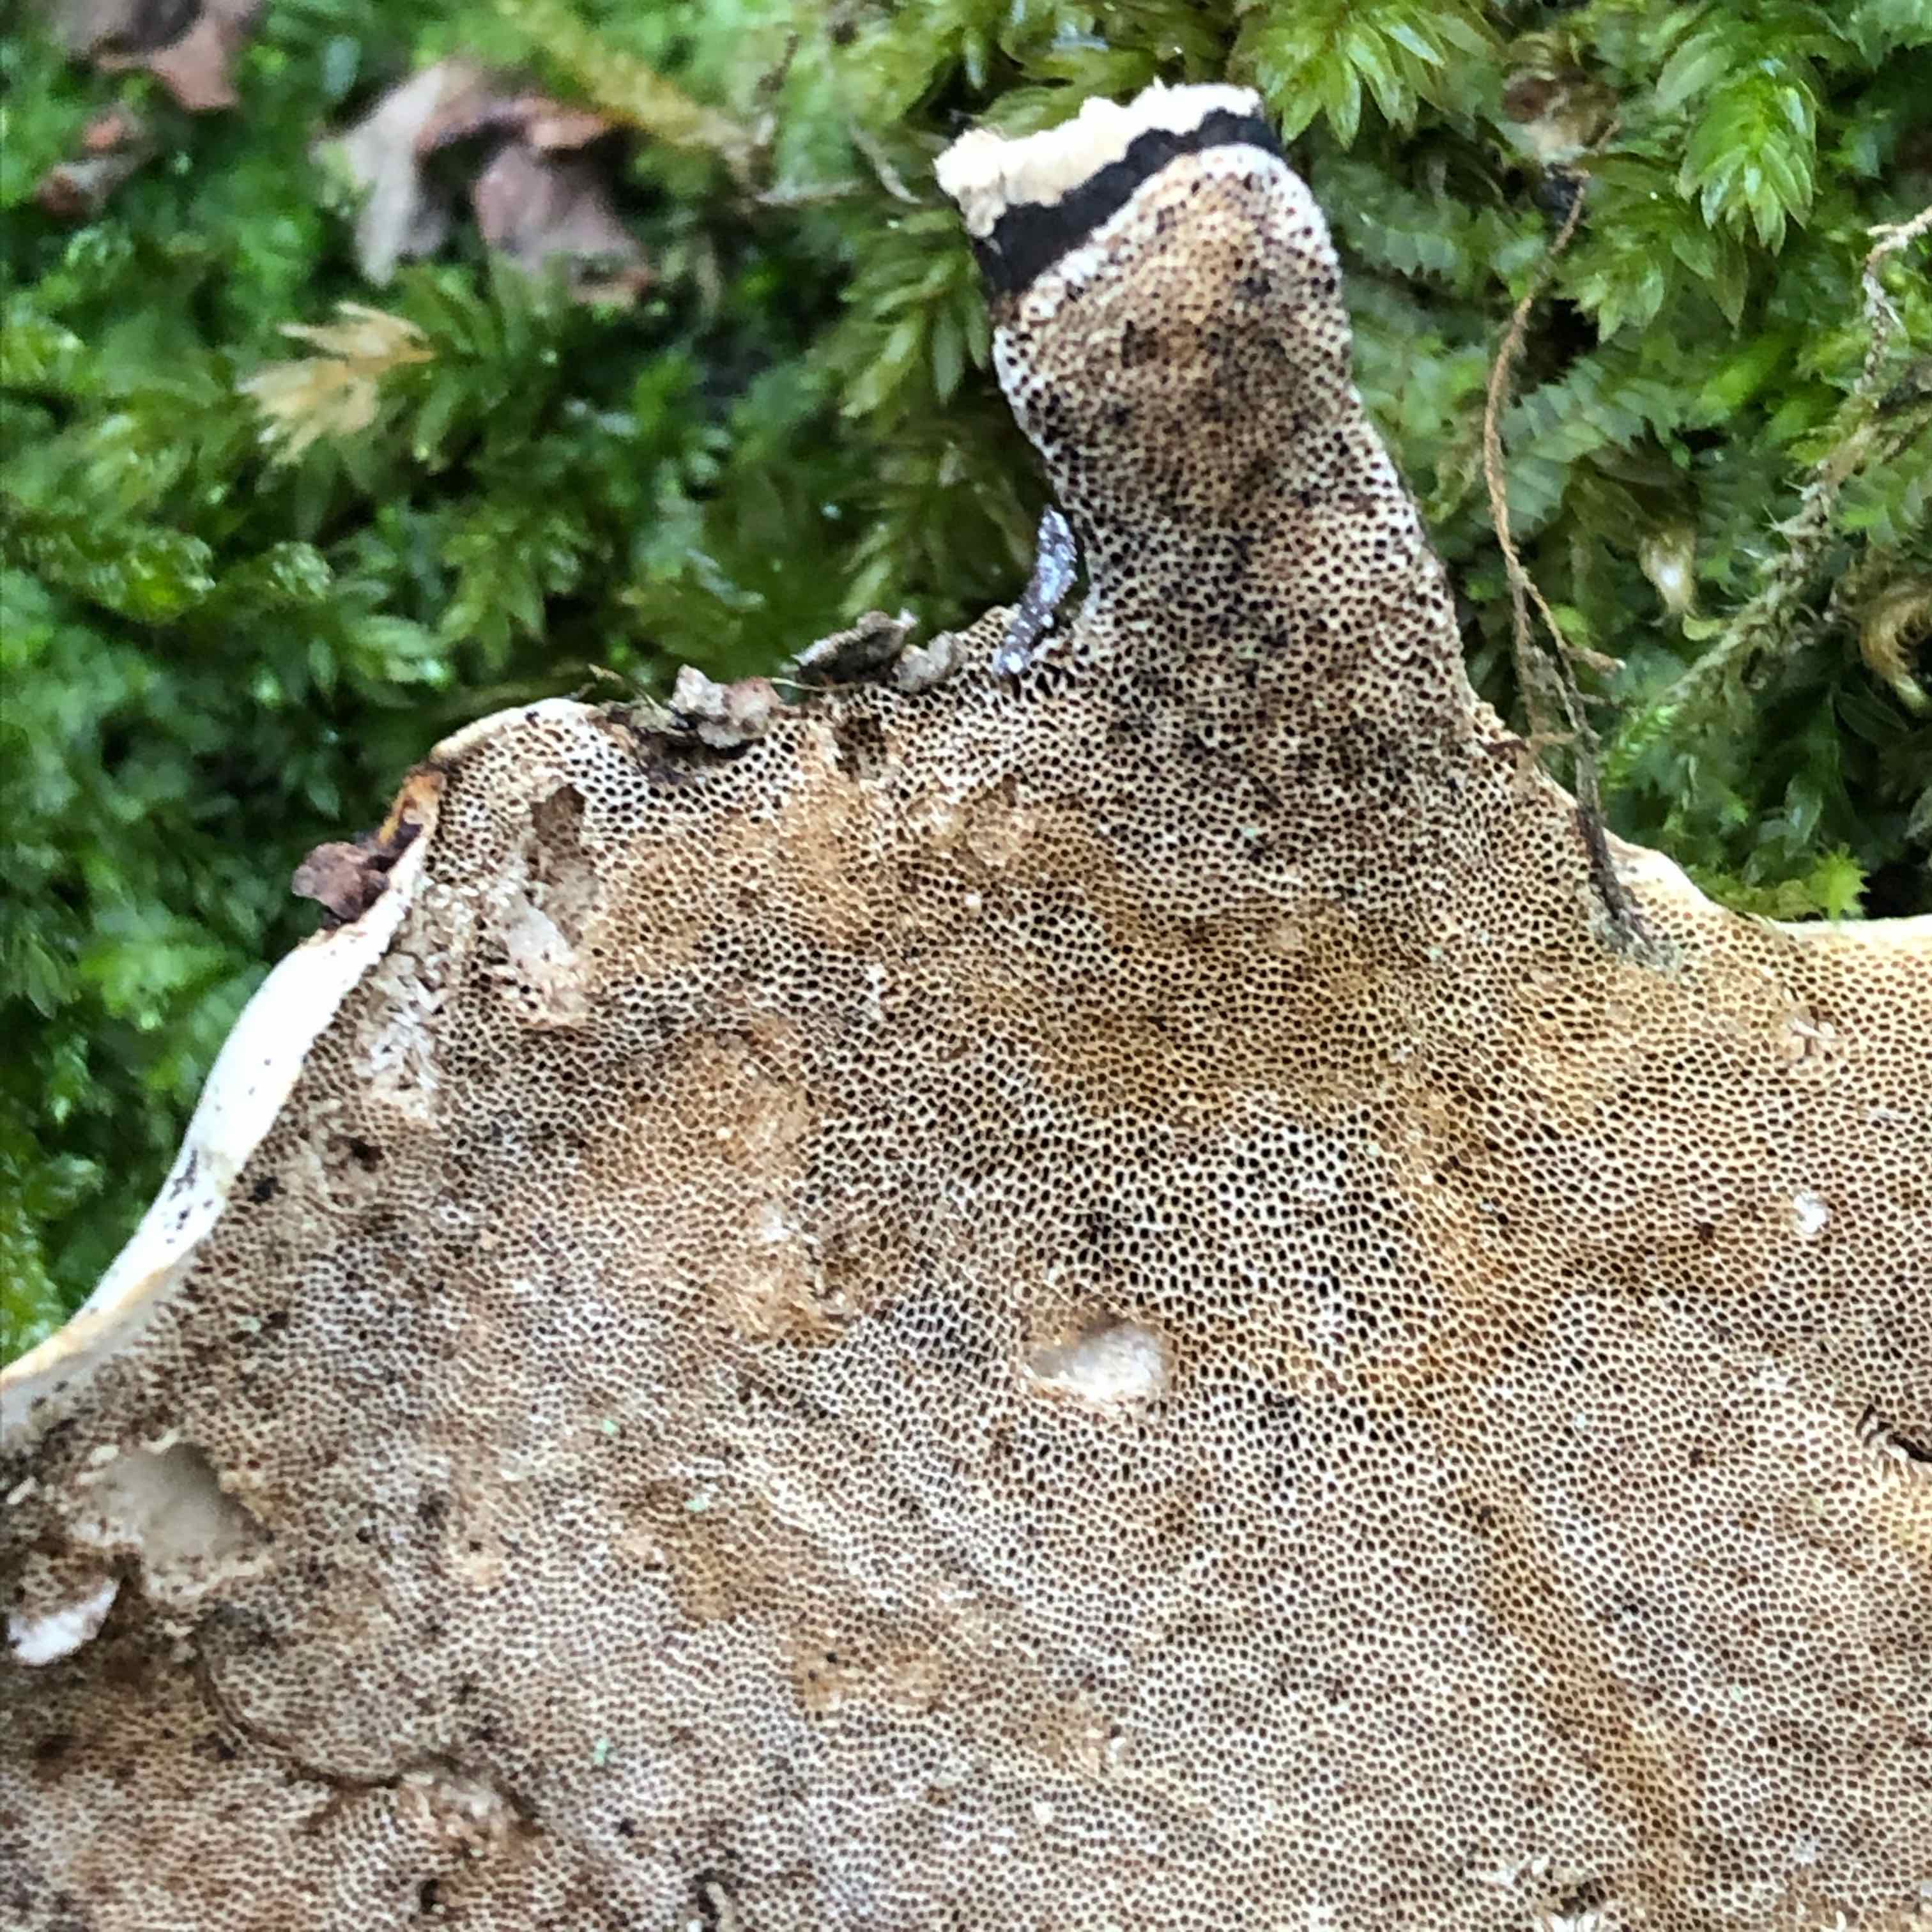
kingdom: Fungi
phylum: Basidiomycota
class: Agaricomycetes
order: Polyporales
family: Polyporaceae
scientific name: Polyporaceae
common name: poresvampfamilien
